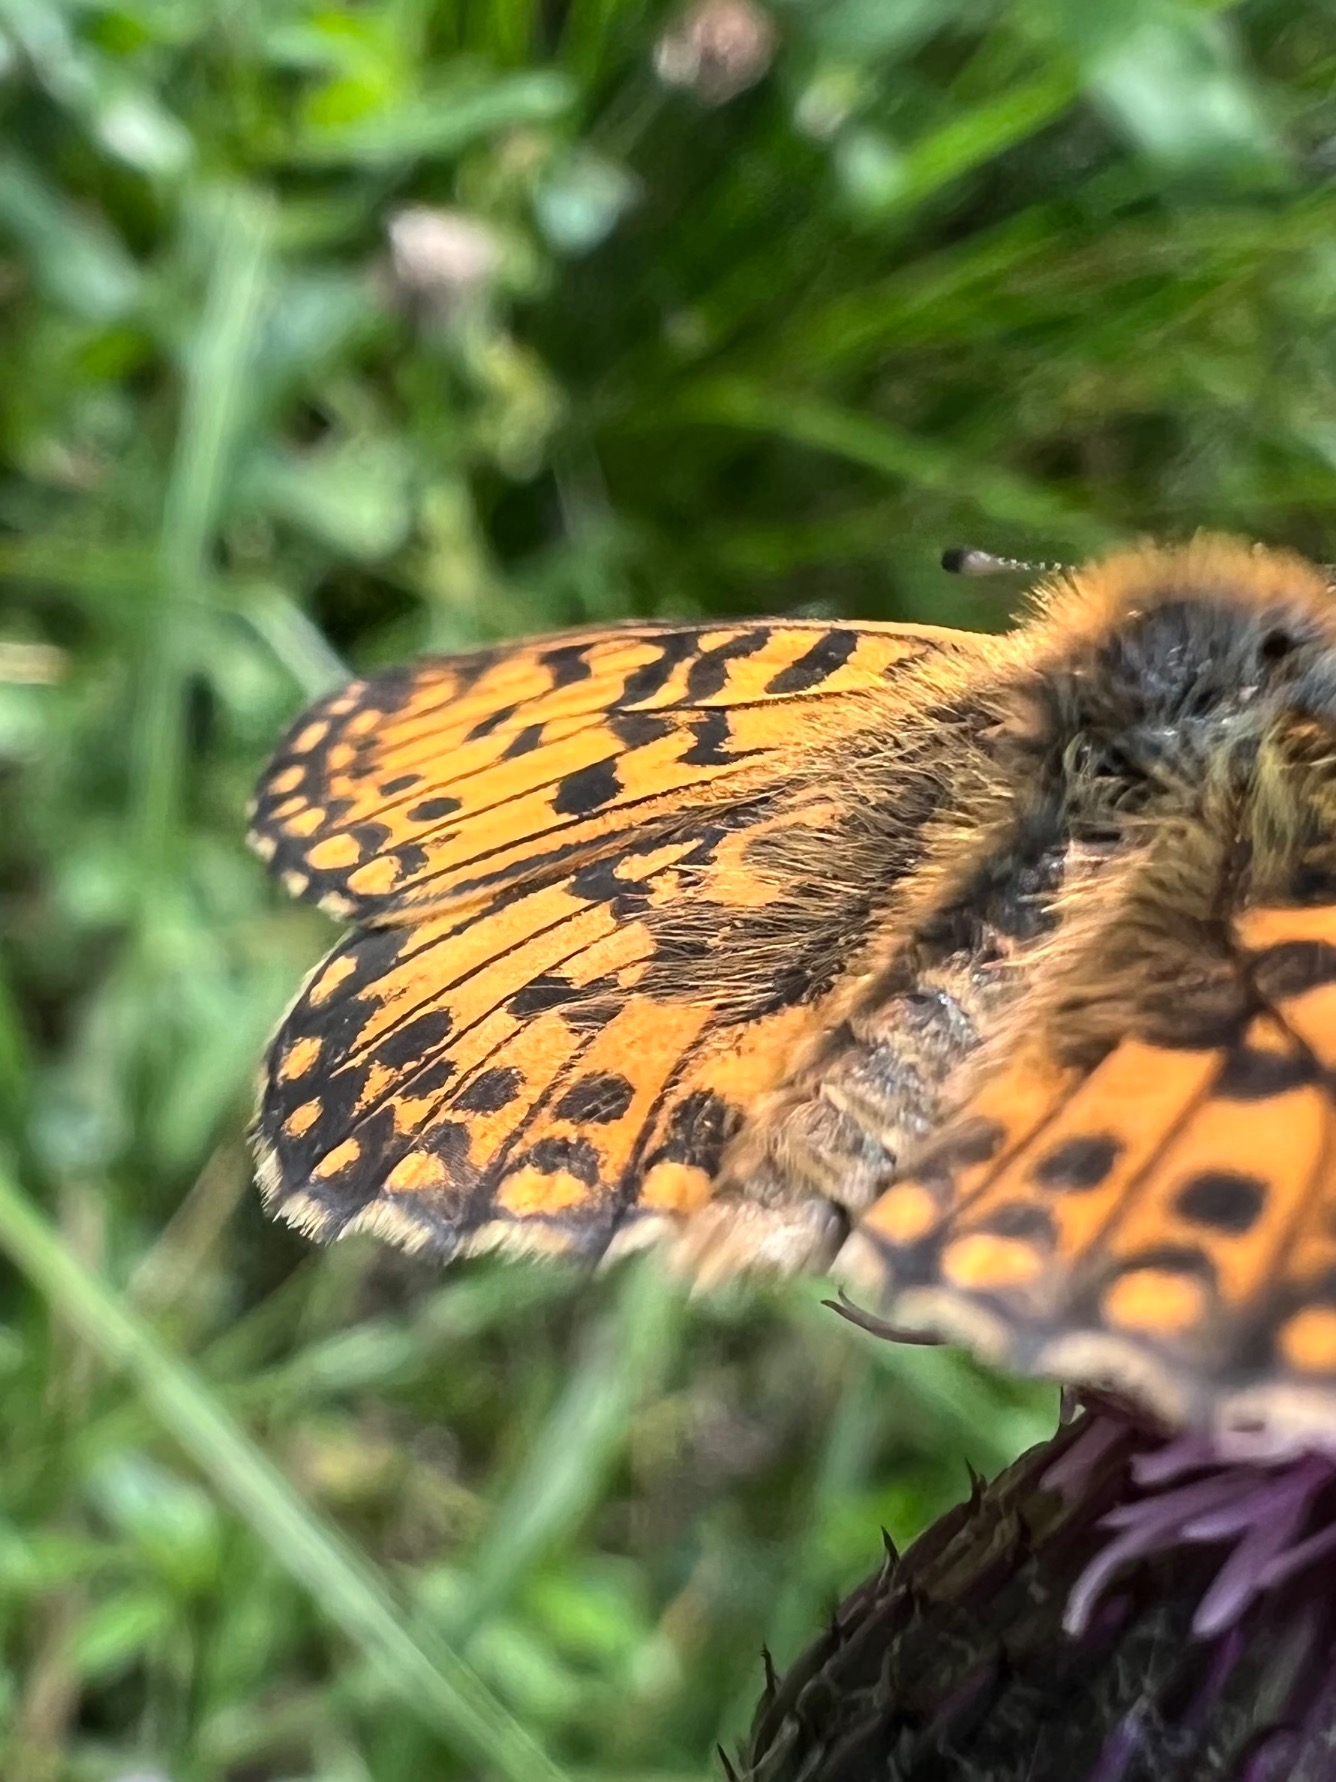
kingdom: Animalia
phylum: Arthropoda
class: Insecta
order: Lepidoptera
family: Nymphalidae
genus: Boloria
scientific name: Boloria selene
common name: Brunlig perlemorsommerfugl
